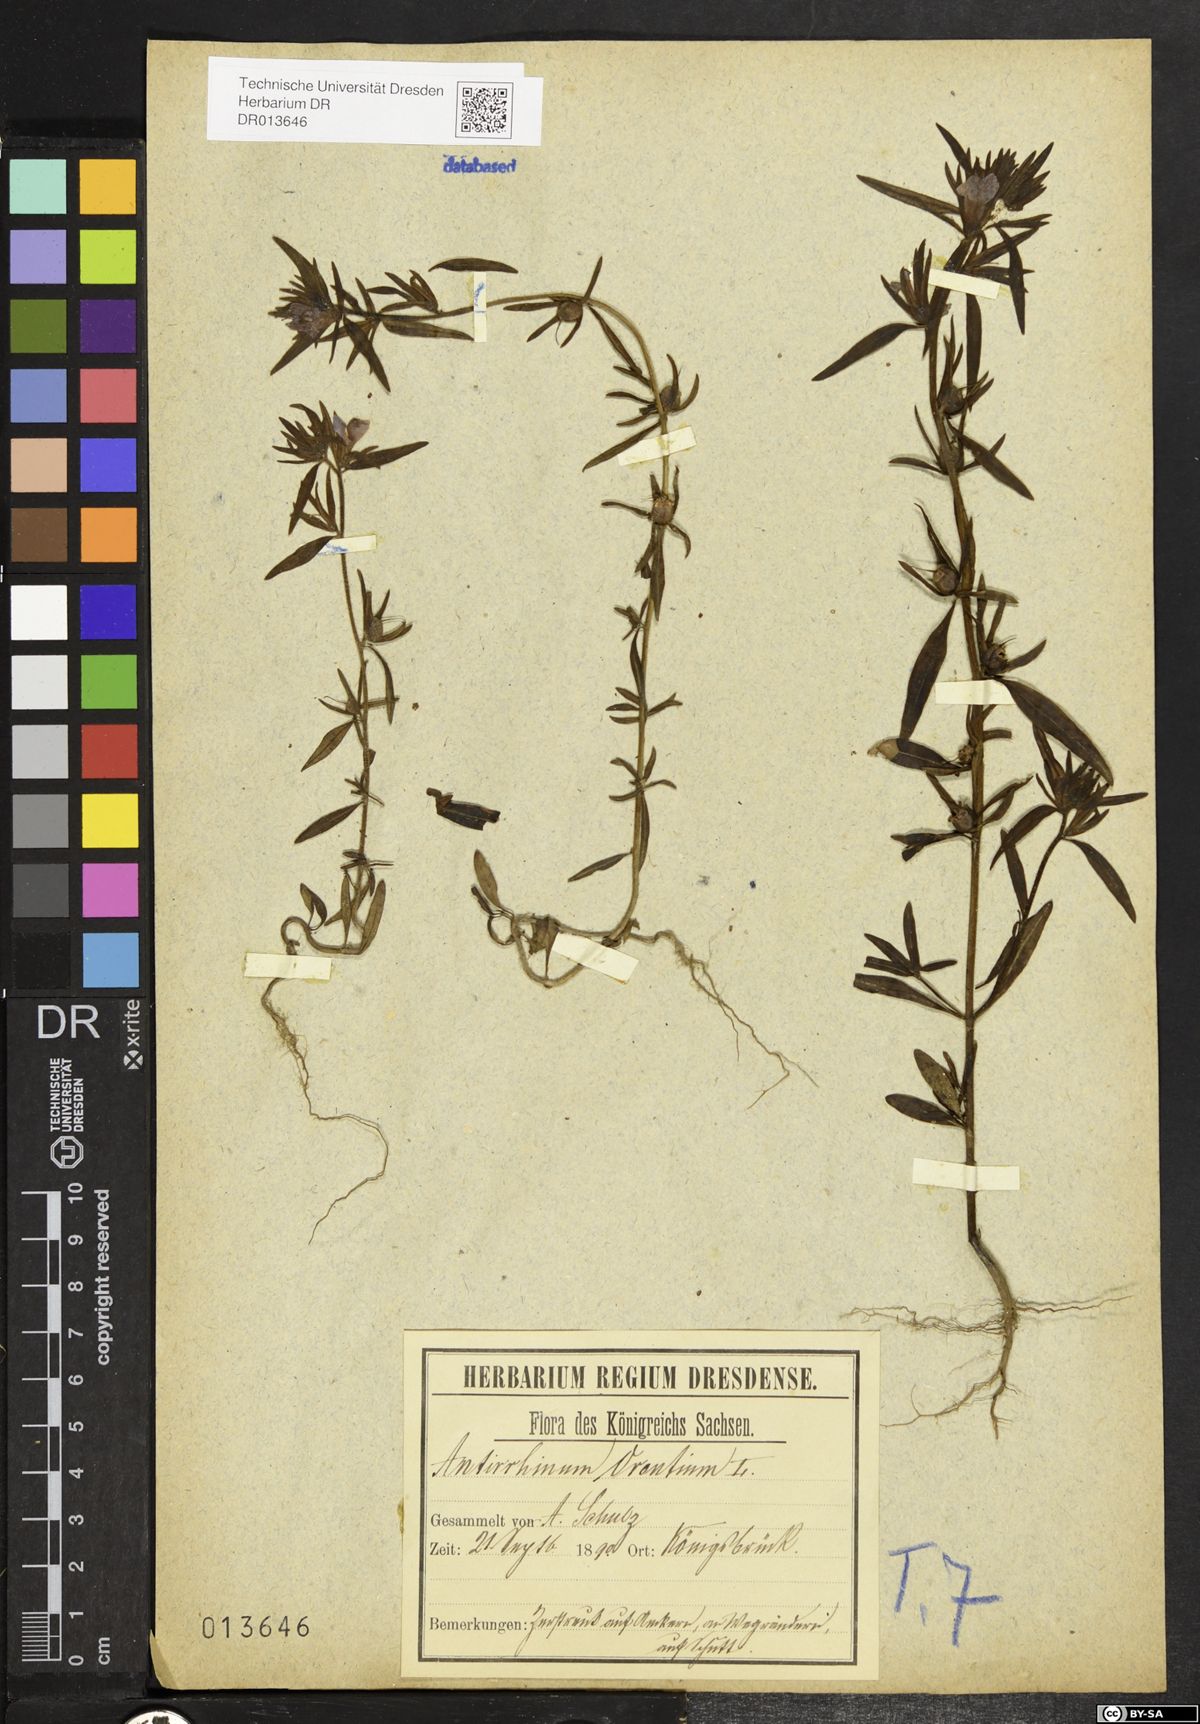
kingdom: Plantae
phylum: Tracheophyta
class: Magnoliopsida
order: Lamiales
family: Plantaginaceae
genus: Misopates
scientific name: Misopates orontium
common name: Weasel's-snout
